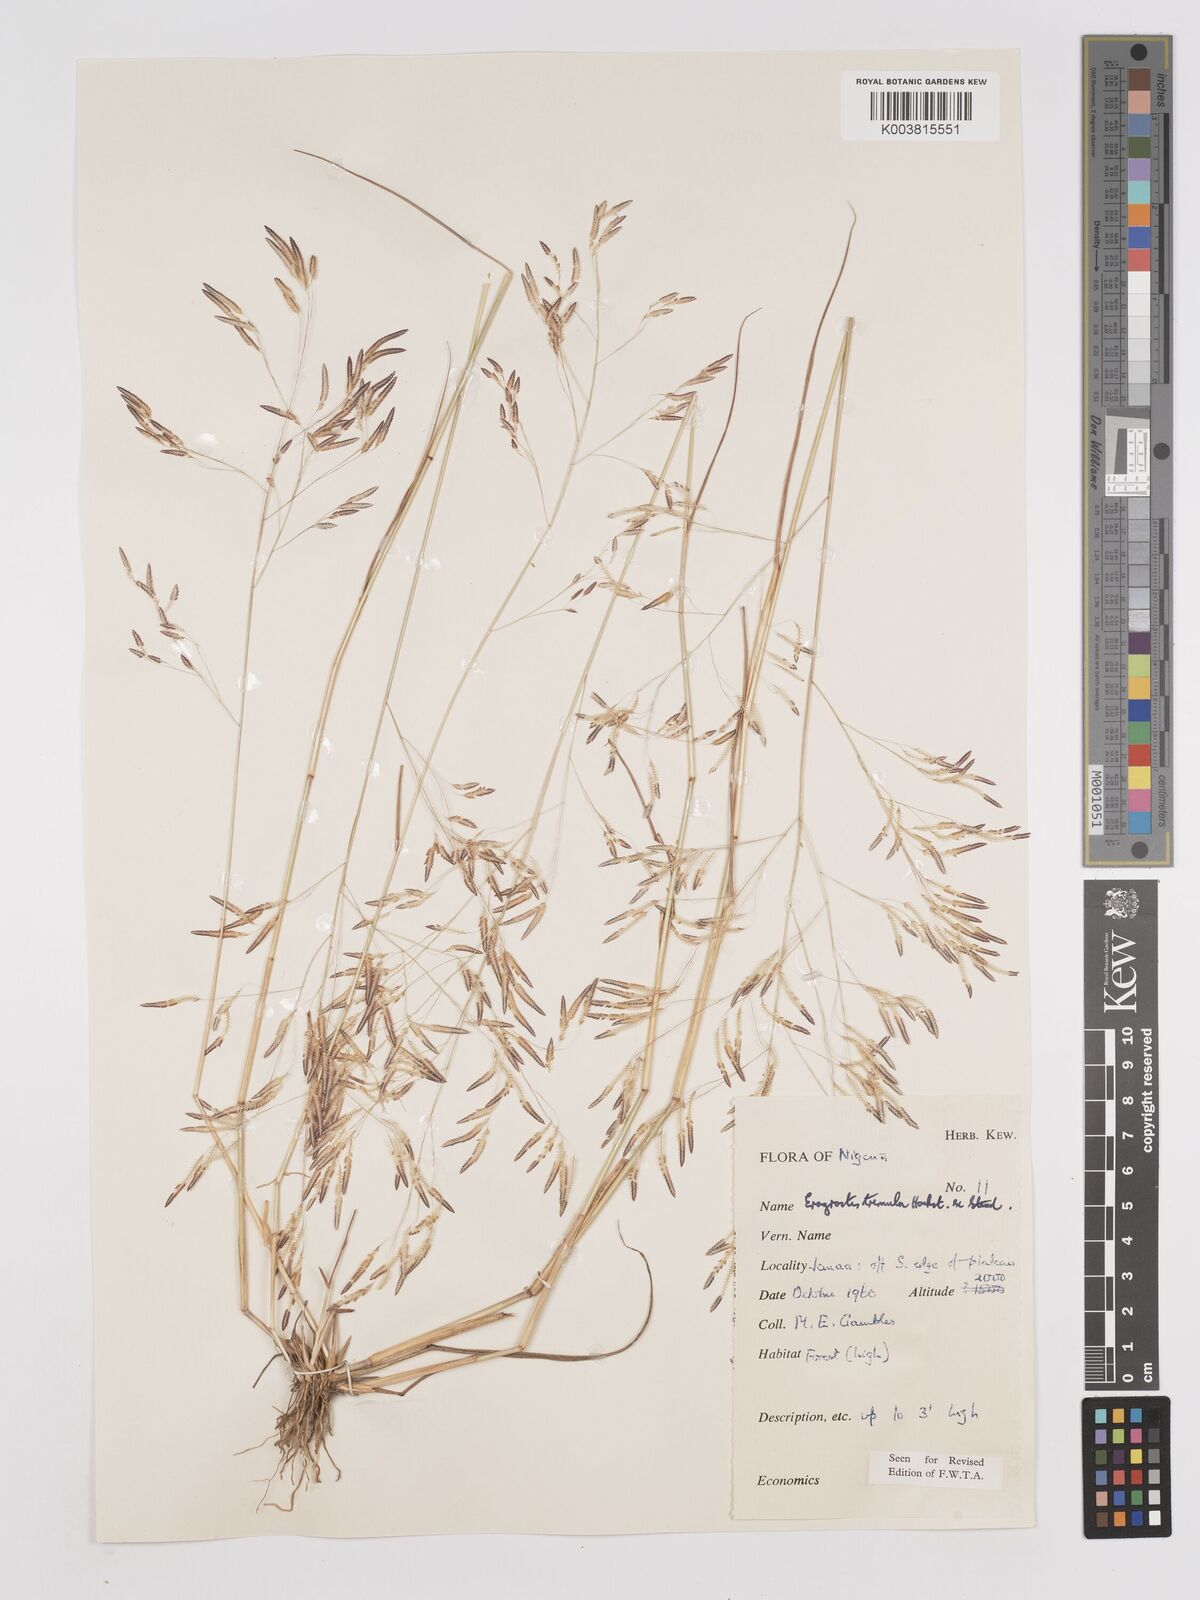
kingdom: Plantae
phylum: Tracheophyta
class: Liliopsida
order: Poales
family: Poaceae
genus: Eragrostis
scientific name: Eragrostis tremula
